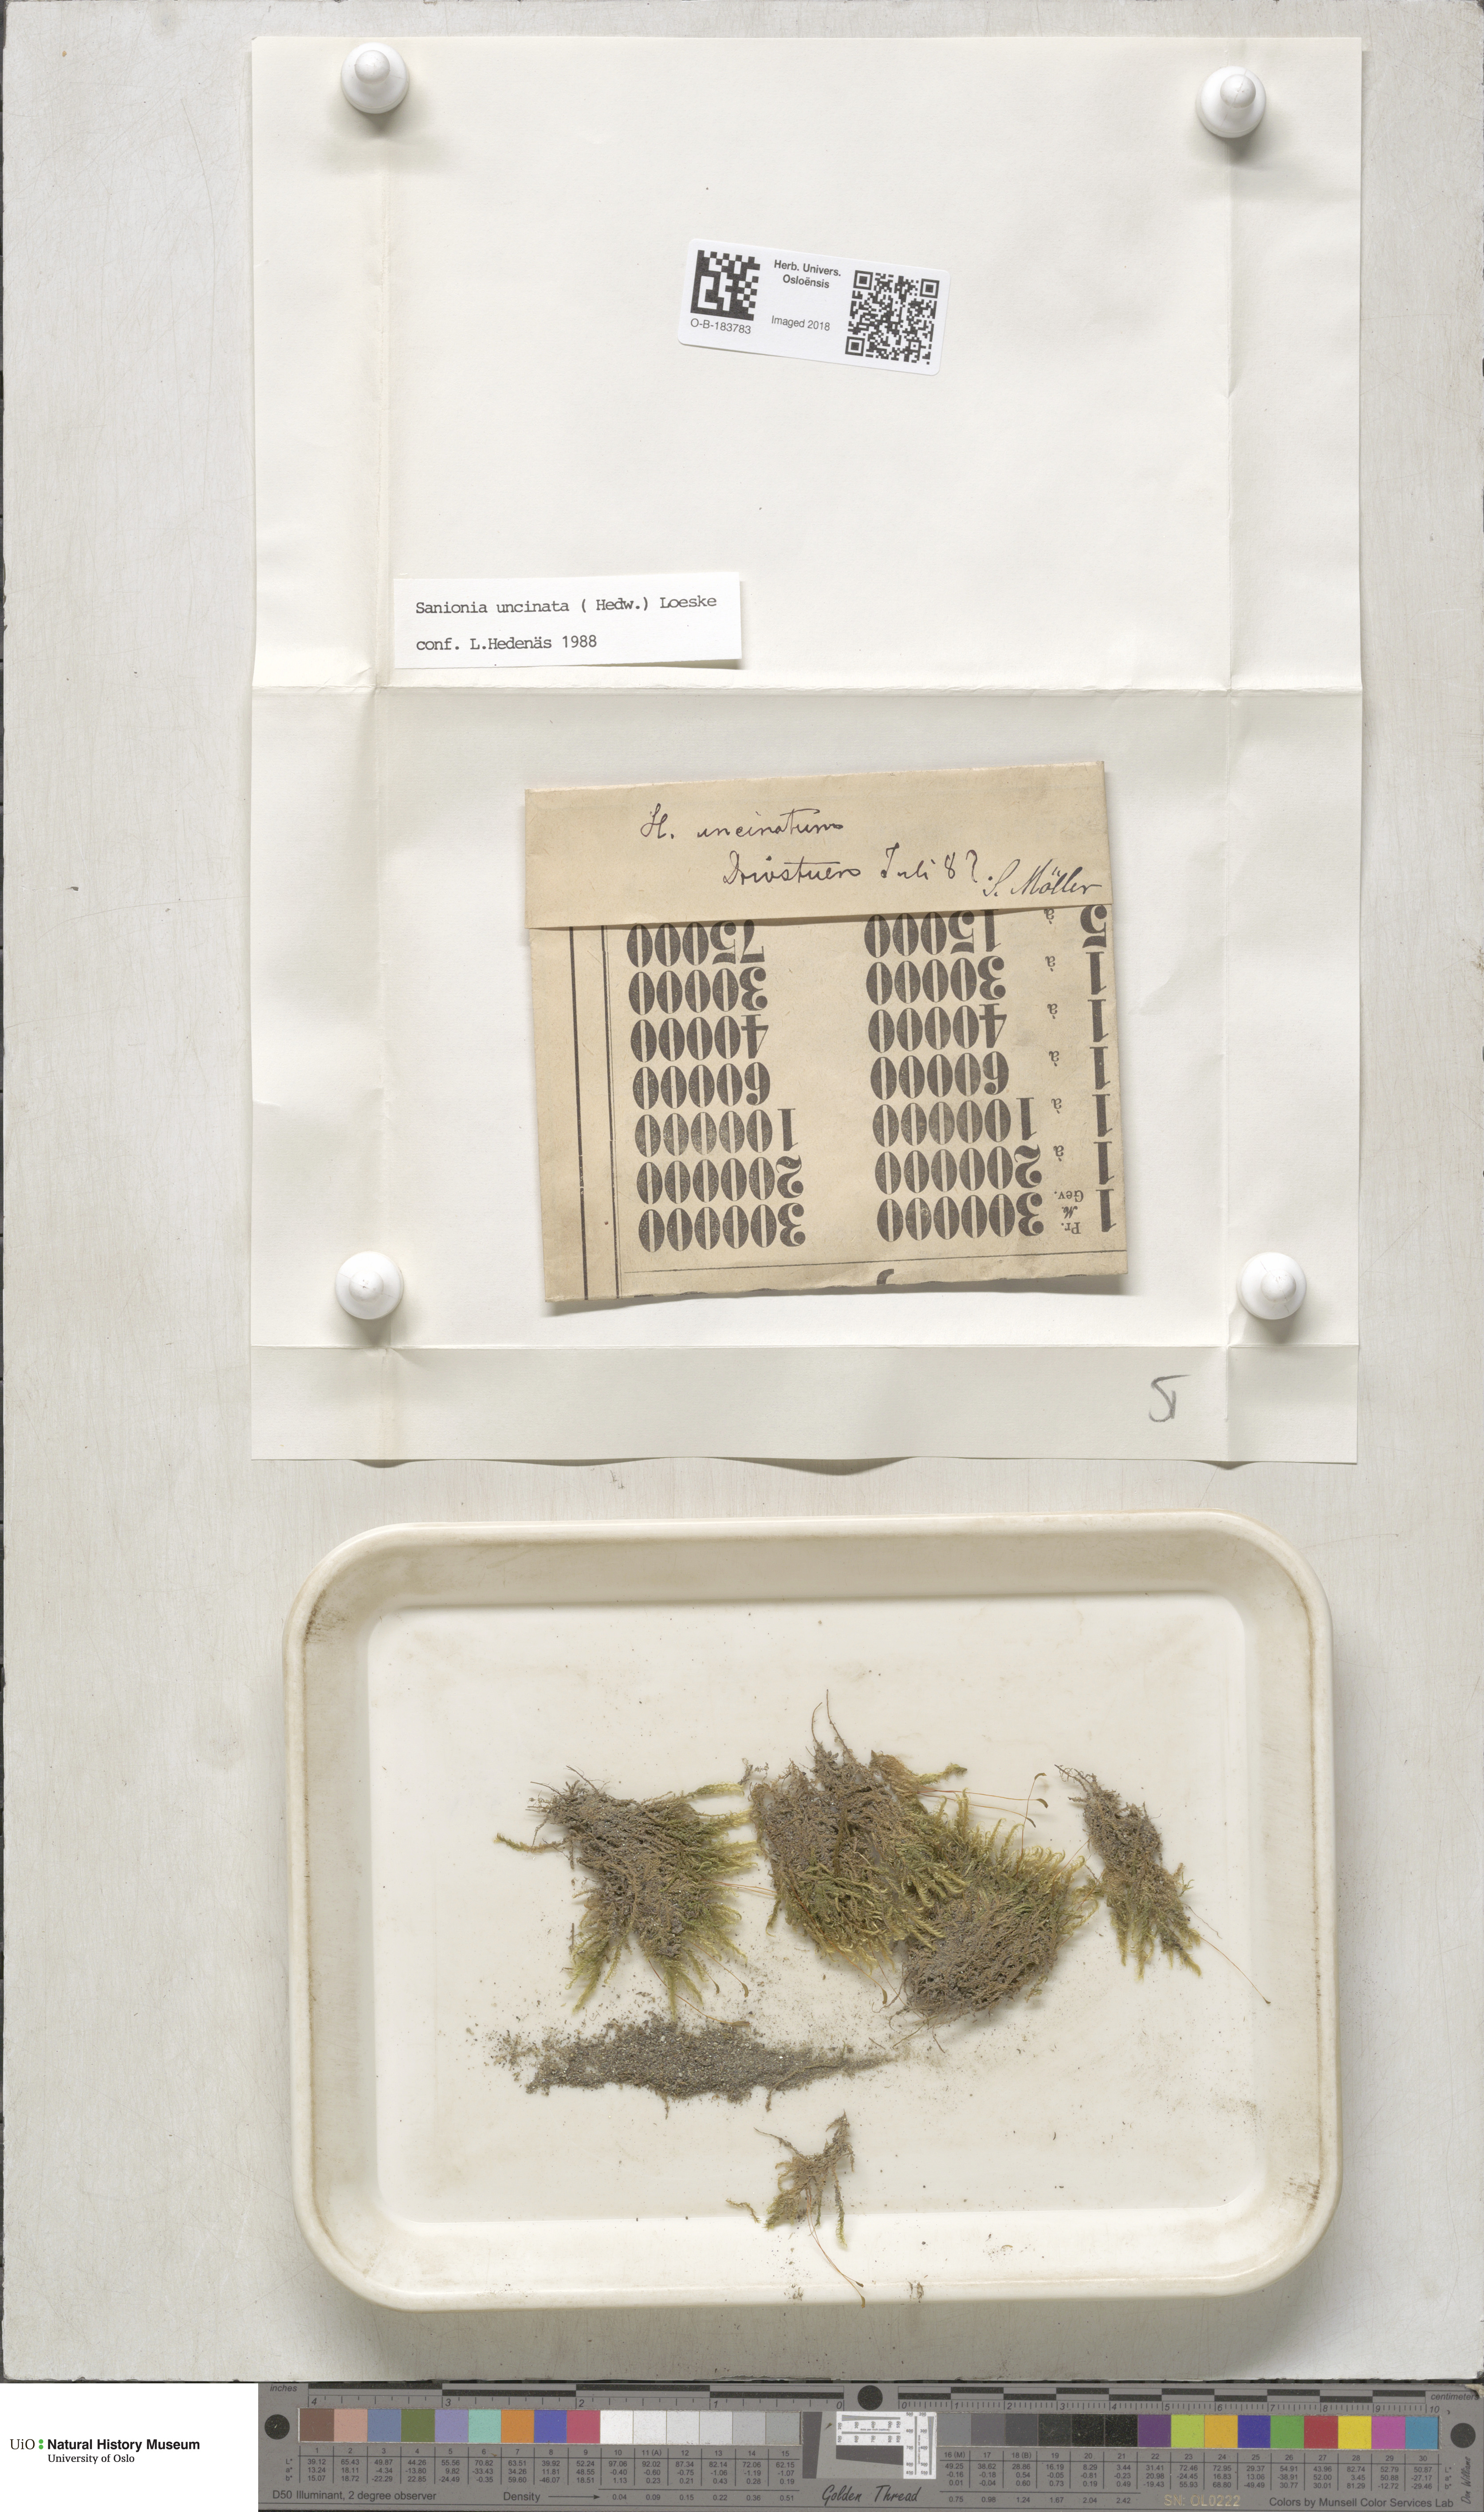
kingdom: Plantae
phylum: Bryophyta
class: Bryopsida
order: Hypnales
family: Scorpidiaceae
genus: Sanionia
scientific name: Sanionia uncinata
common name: Sickle moss
